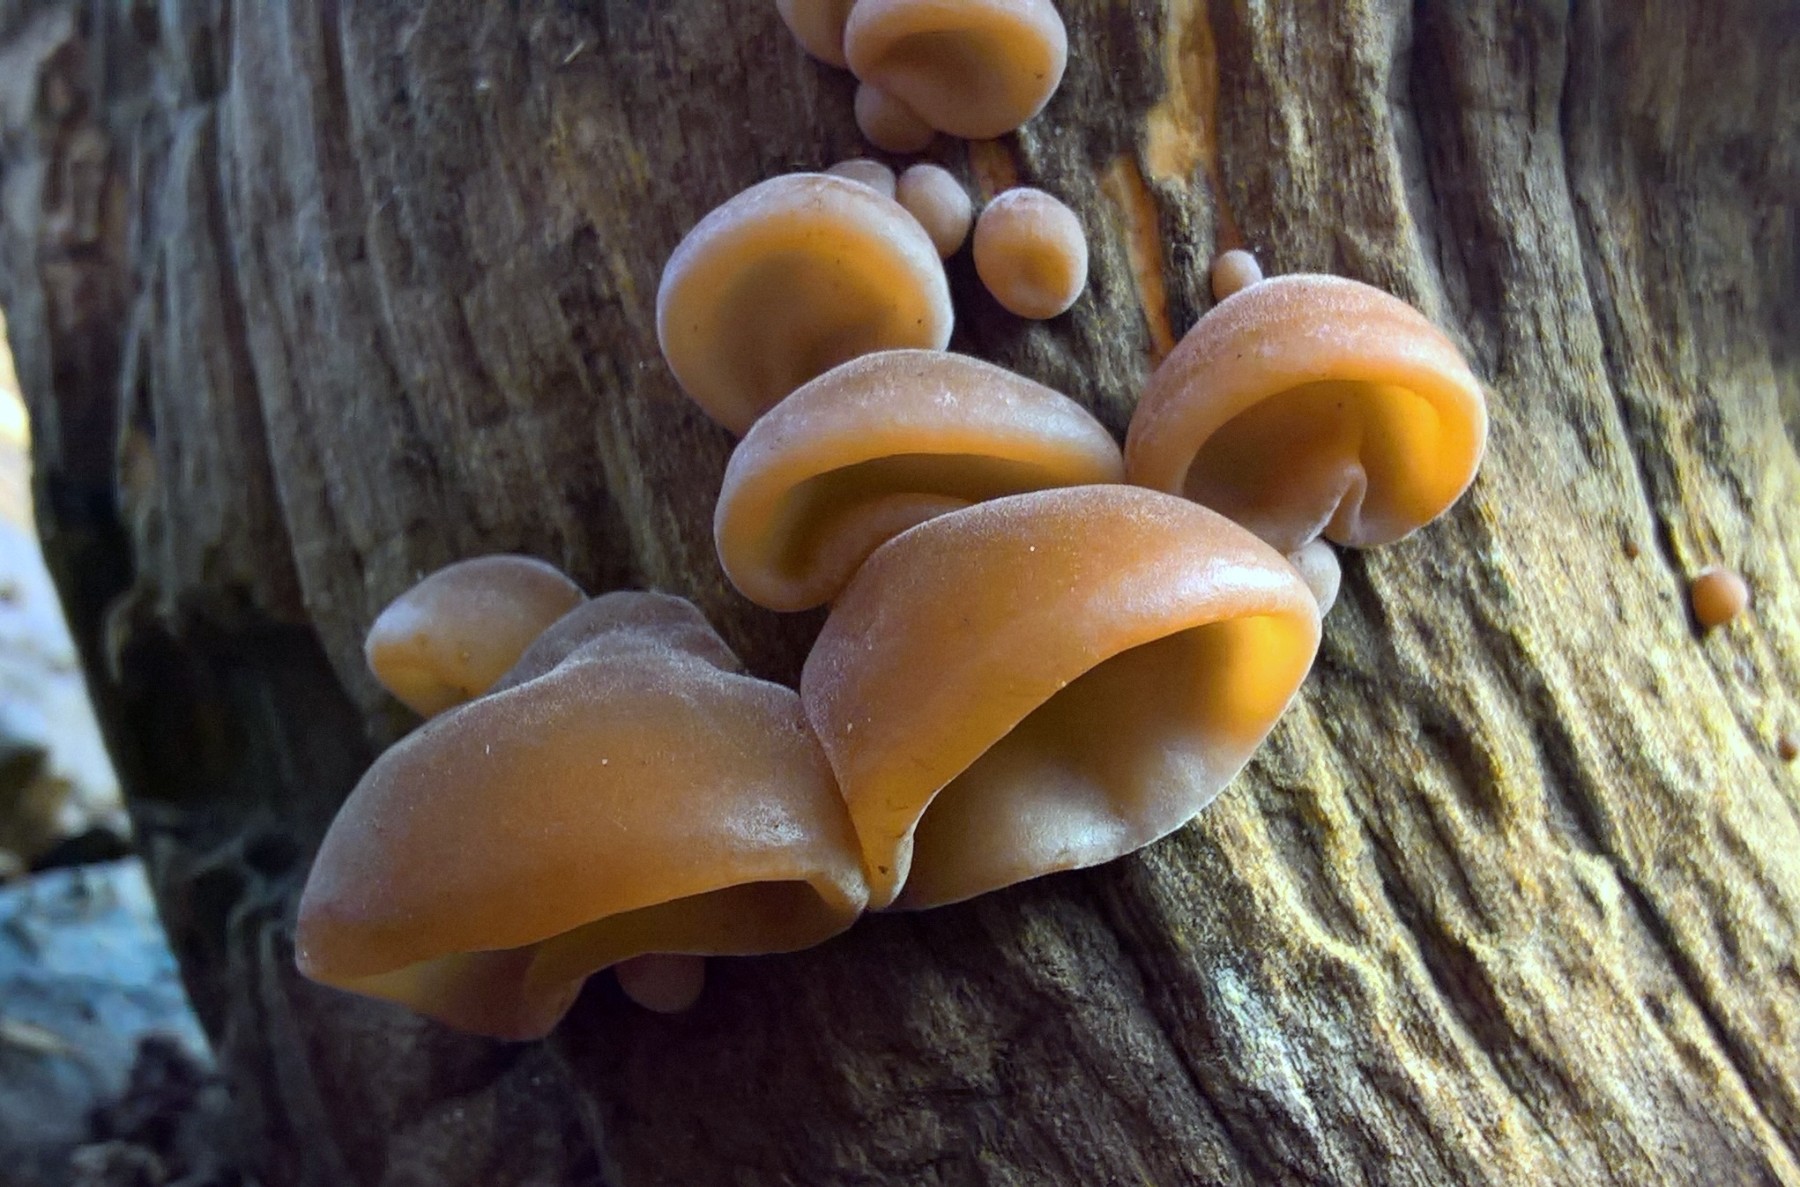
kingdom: Fungi
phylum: Basidiomycota
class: Agaricomycetes
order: Auriculariales
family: Auriculariaceae
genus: Auricularia
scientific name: Auricularia auricula-judae
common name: almindelig judasøre
